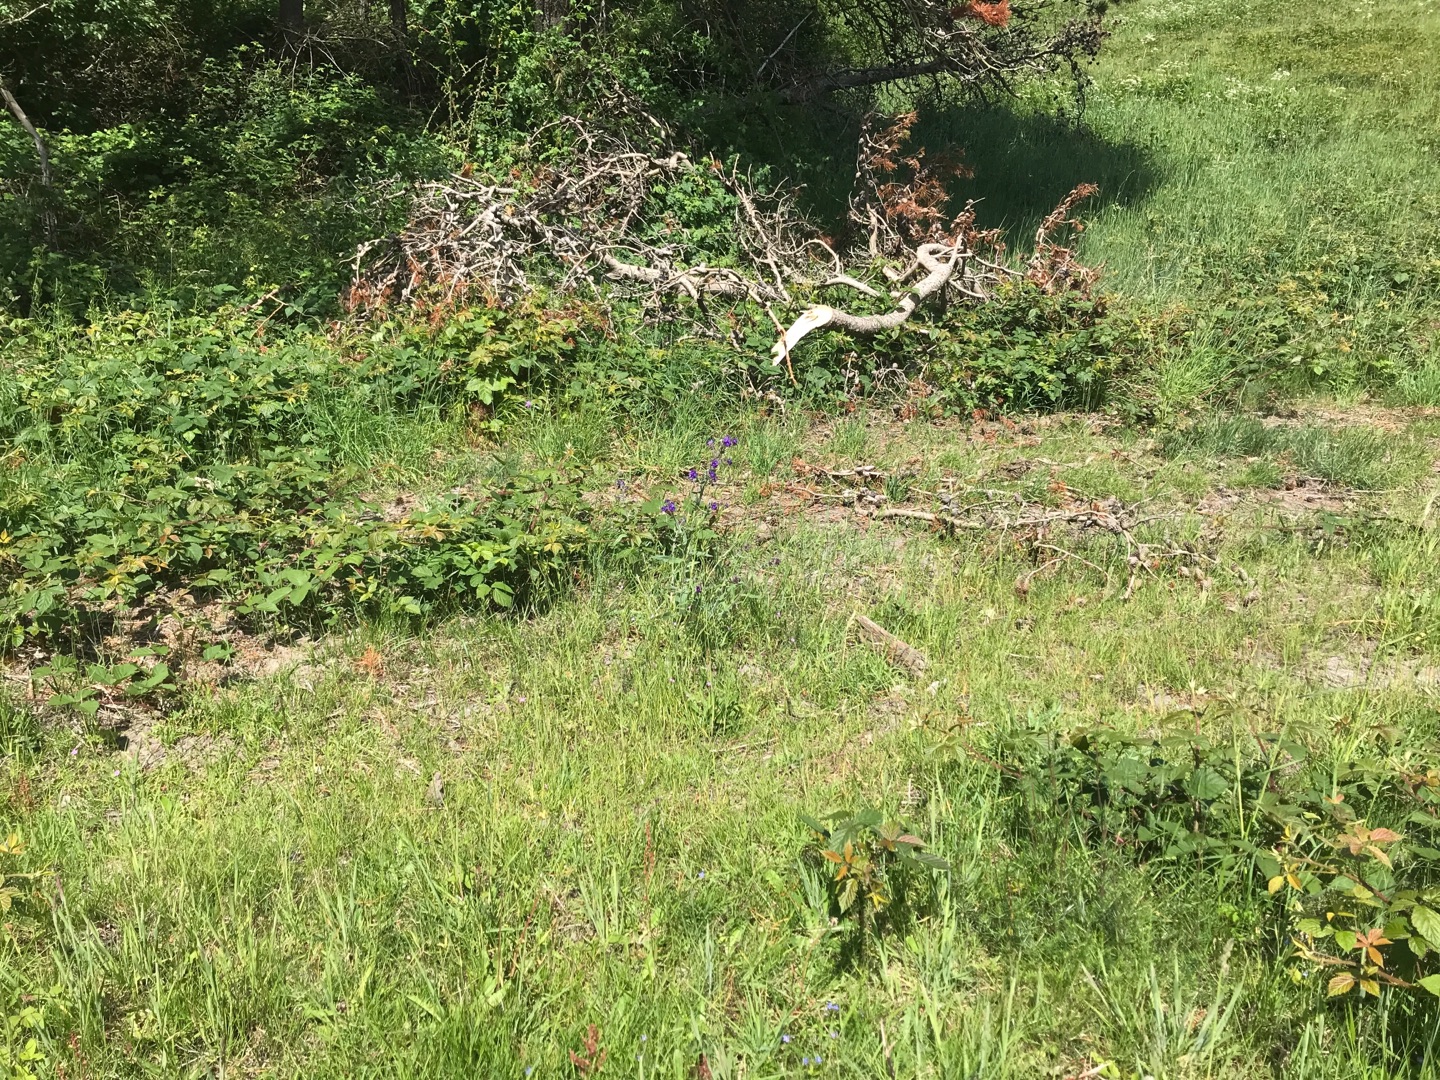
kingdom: Plantae
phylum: Tracheophyta
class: Magnoliopsida
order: Boraginales
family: Boraginaceae
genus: Anchusa
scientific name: Anchusa officinalis
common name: Læge-oksetunge
